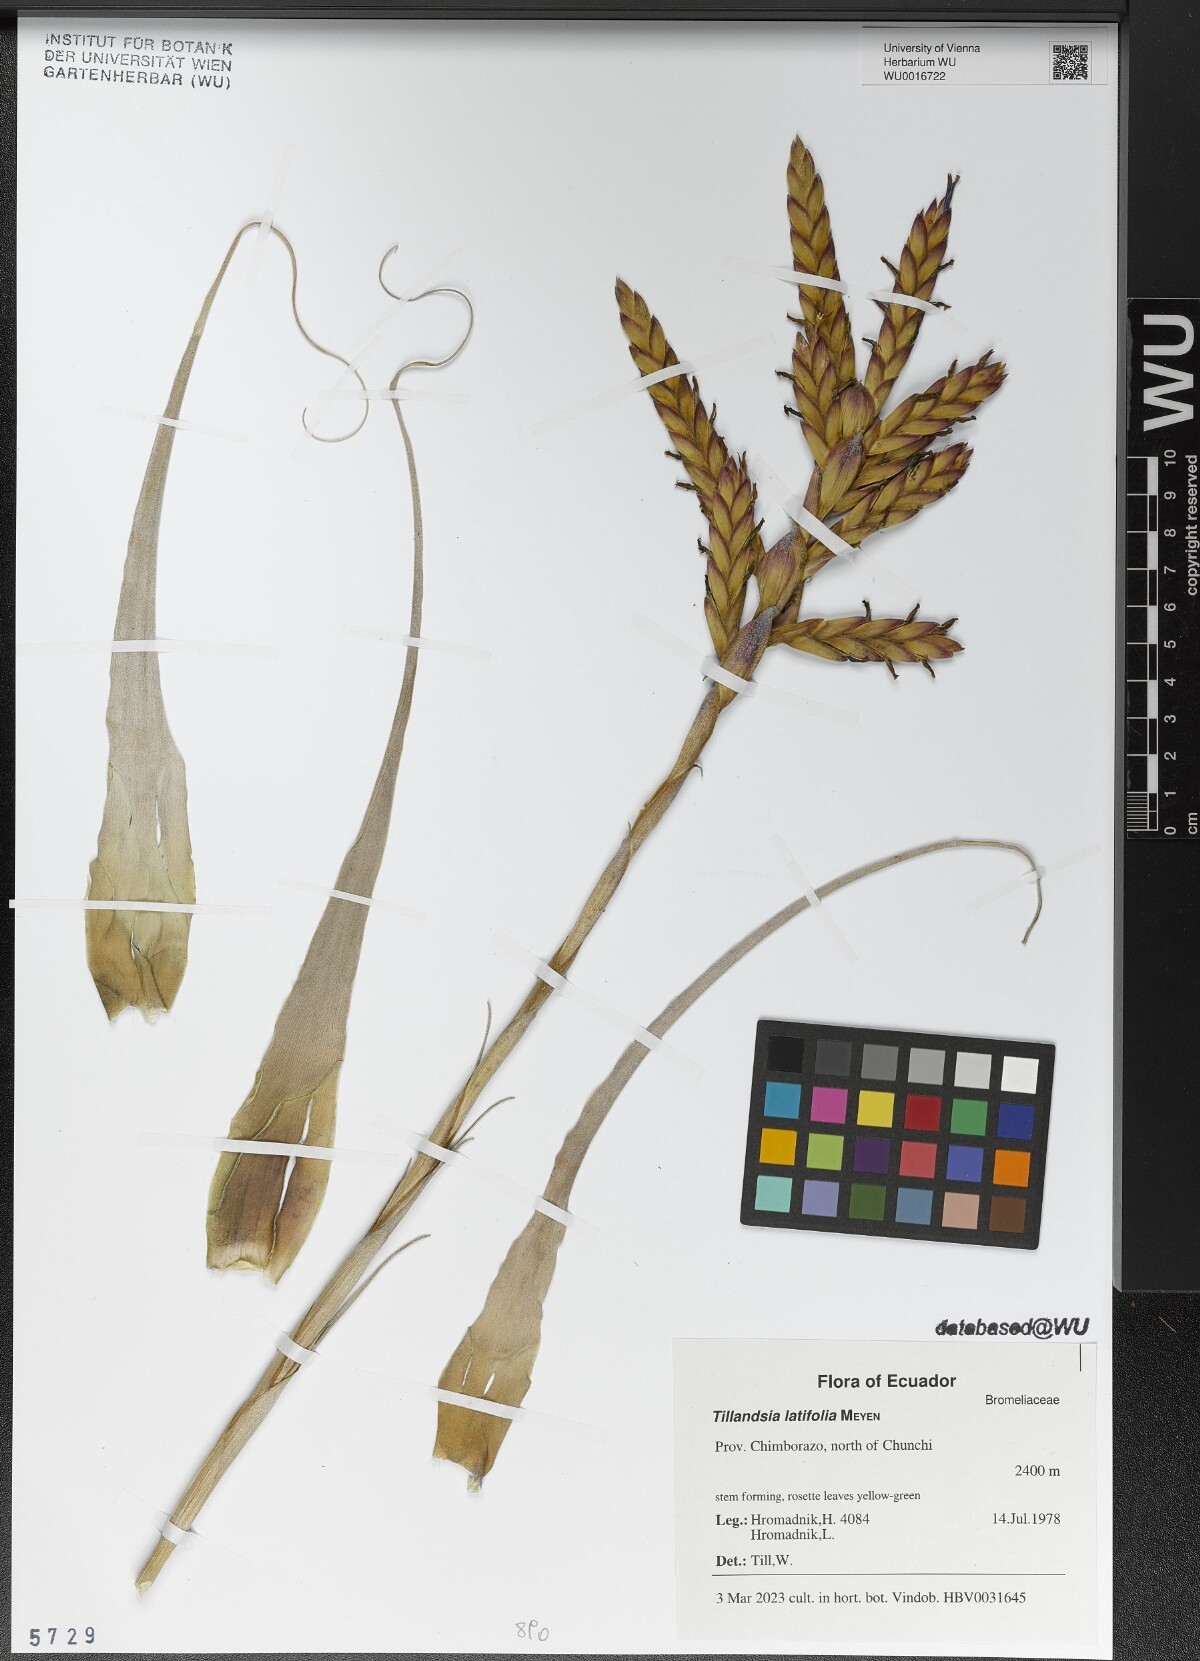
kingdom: Plantae
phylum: Tracheophyta
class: Liliopsida
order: Poales
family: Bromeliaceae
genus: Tillandsia
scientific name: Tillandsia latifolia
